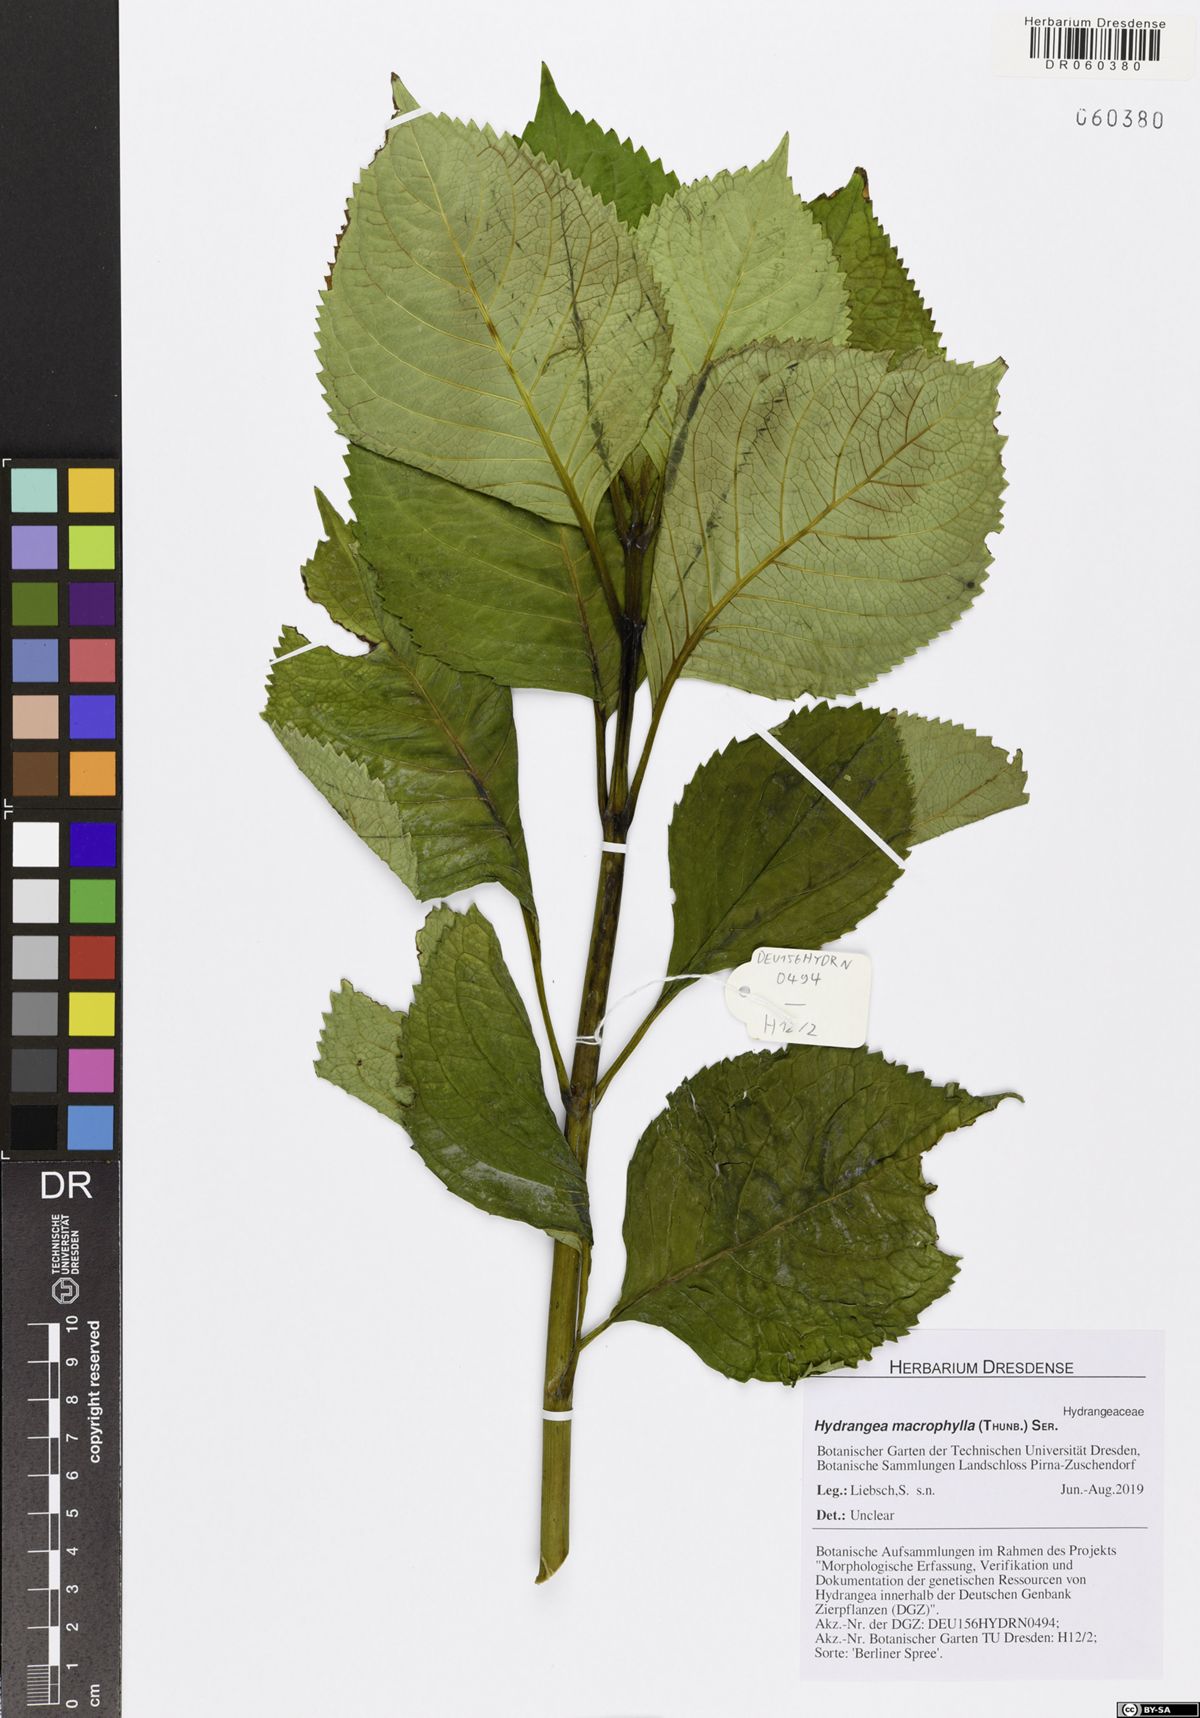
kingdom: Plantae
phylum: Tracheophyta
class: Magnoliopsida
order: Cornales
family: Hydrangeaceae
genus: Hydrangea
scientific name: Hydrangea macrophylla
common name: Hydrangea
